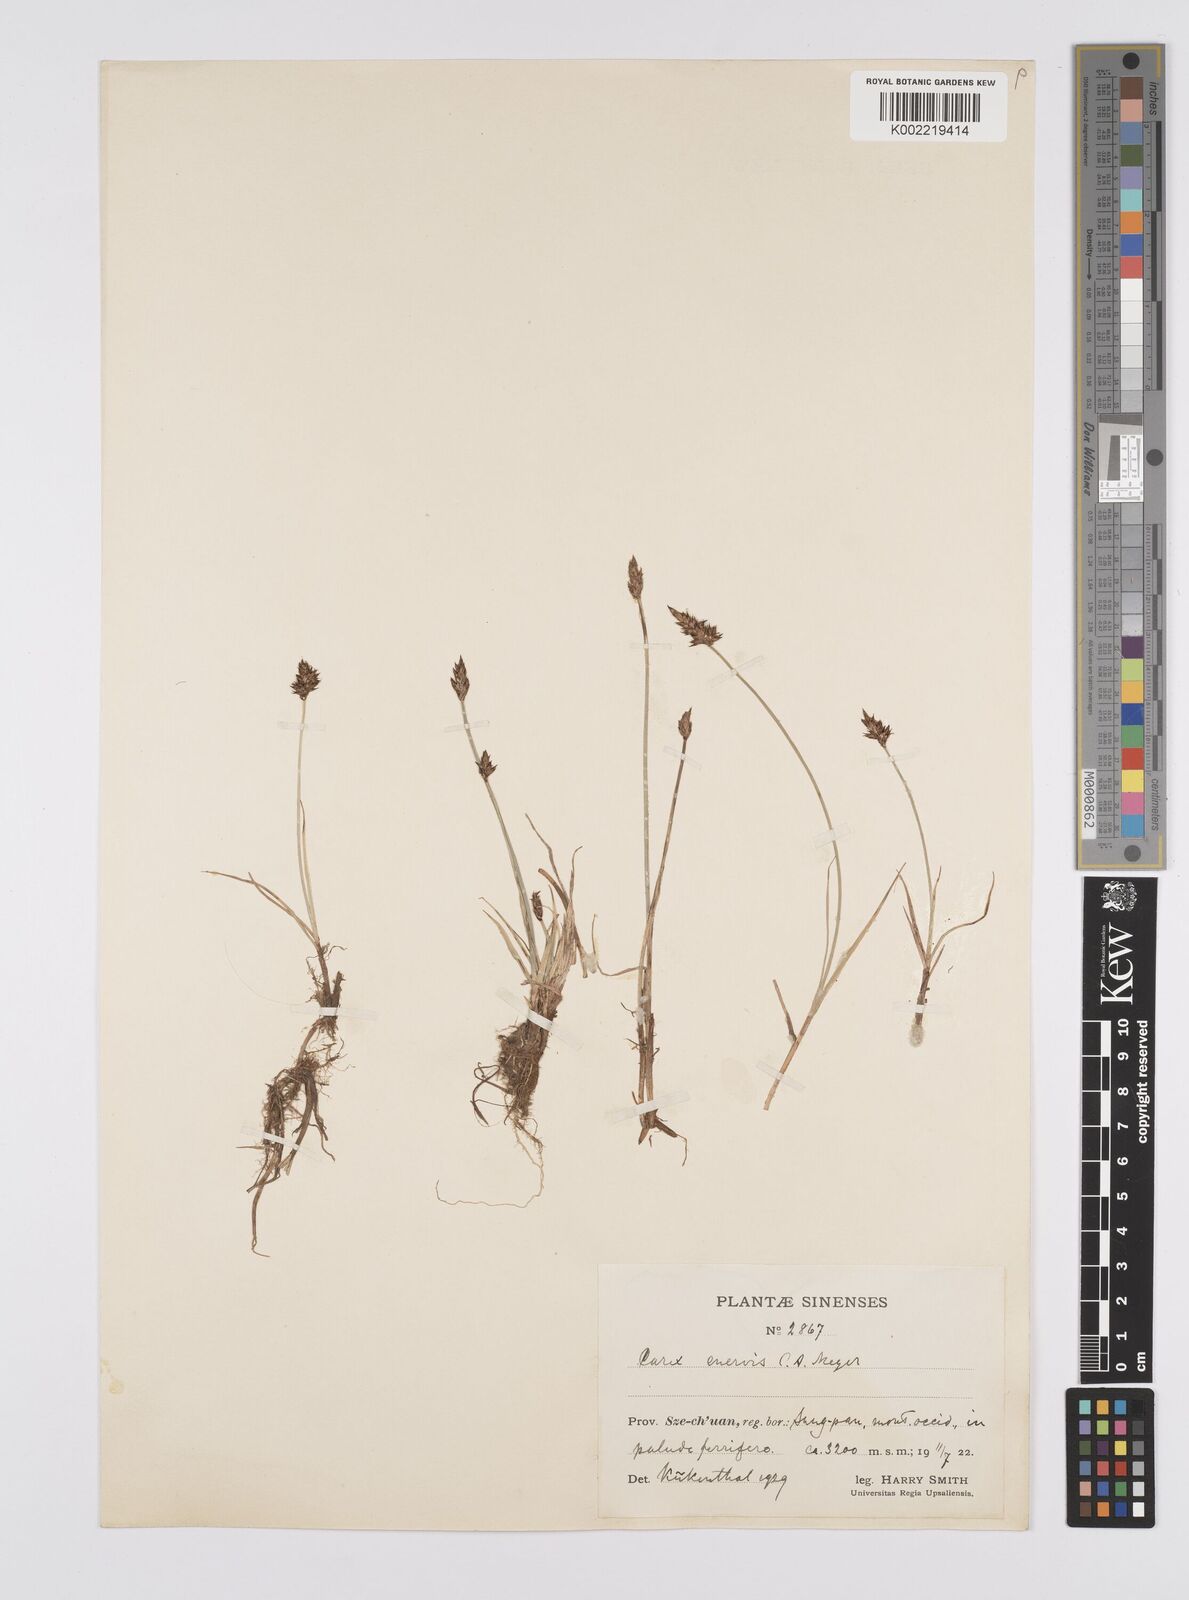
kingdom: Plantae
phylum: Tracheophyta
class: Liliopsida
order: Poales
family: Cyperaceae
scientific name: Cyperaceae
